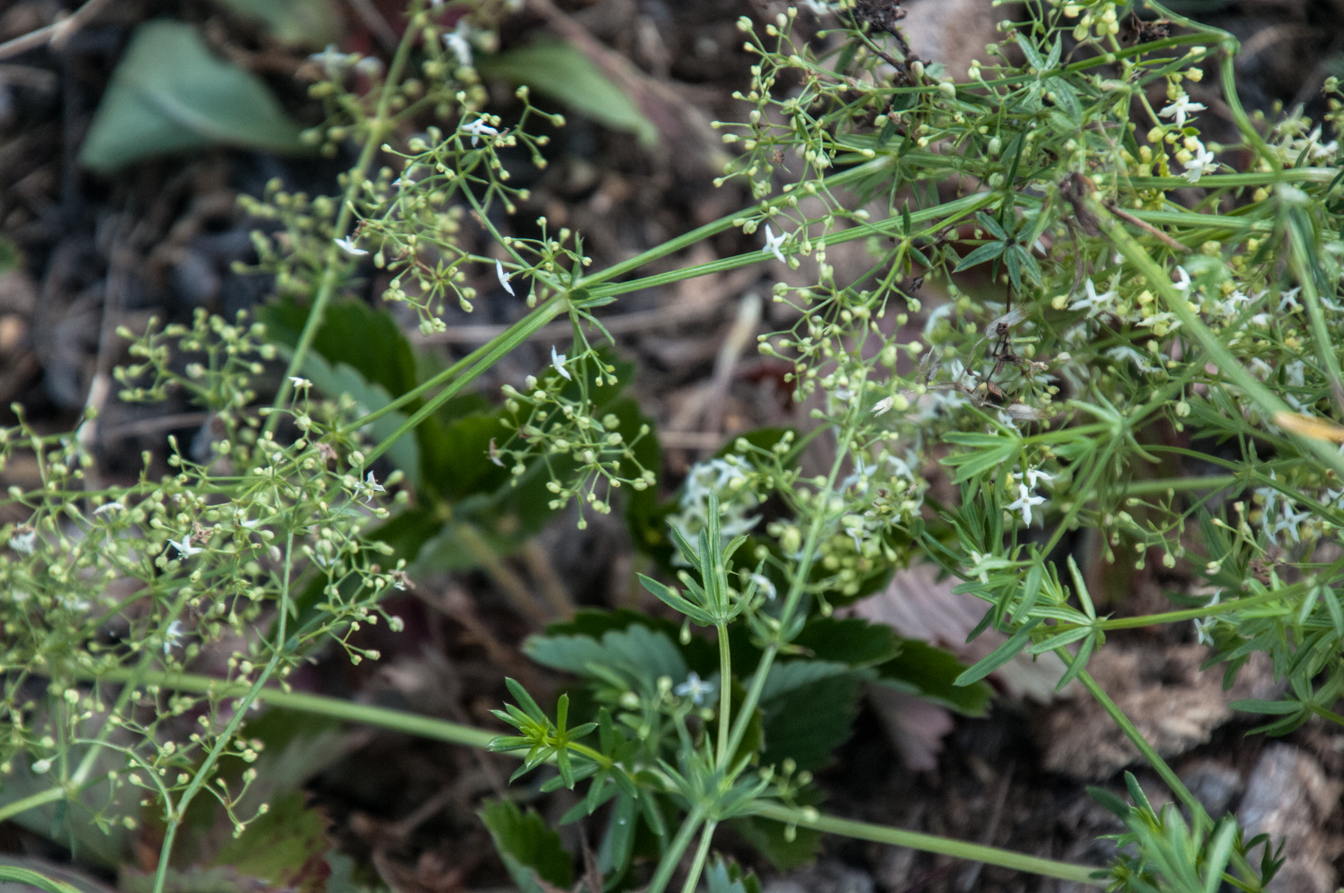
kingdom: Plantae
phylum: Tracheophyta
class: Magnoliopsida
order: Gentianales
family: Rubiaceae
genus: Galium
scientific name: Galium pumilum
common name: Slender bedstraw
